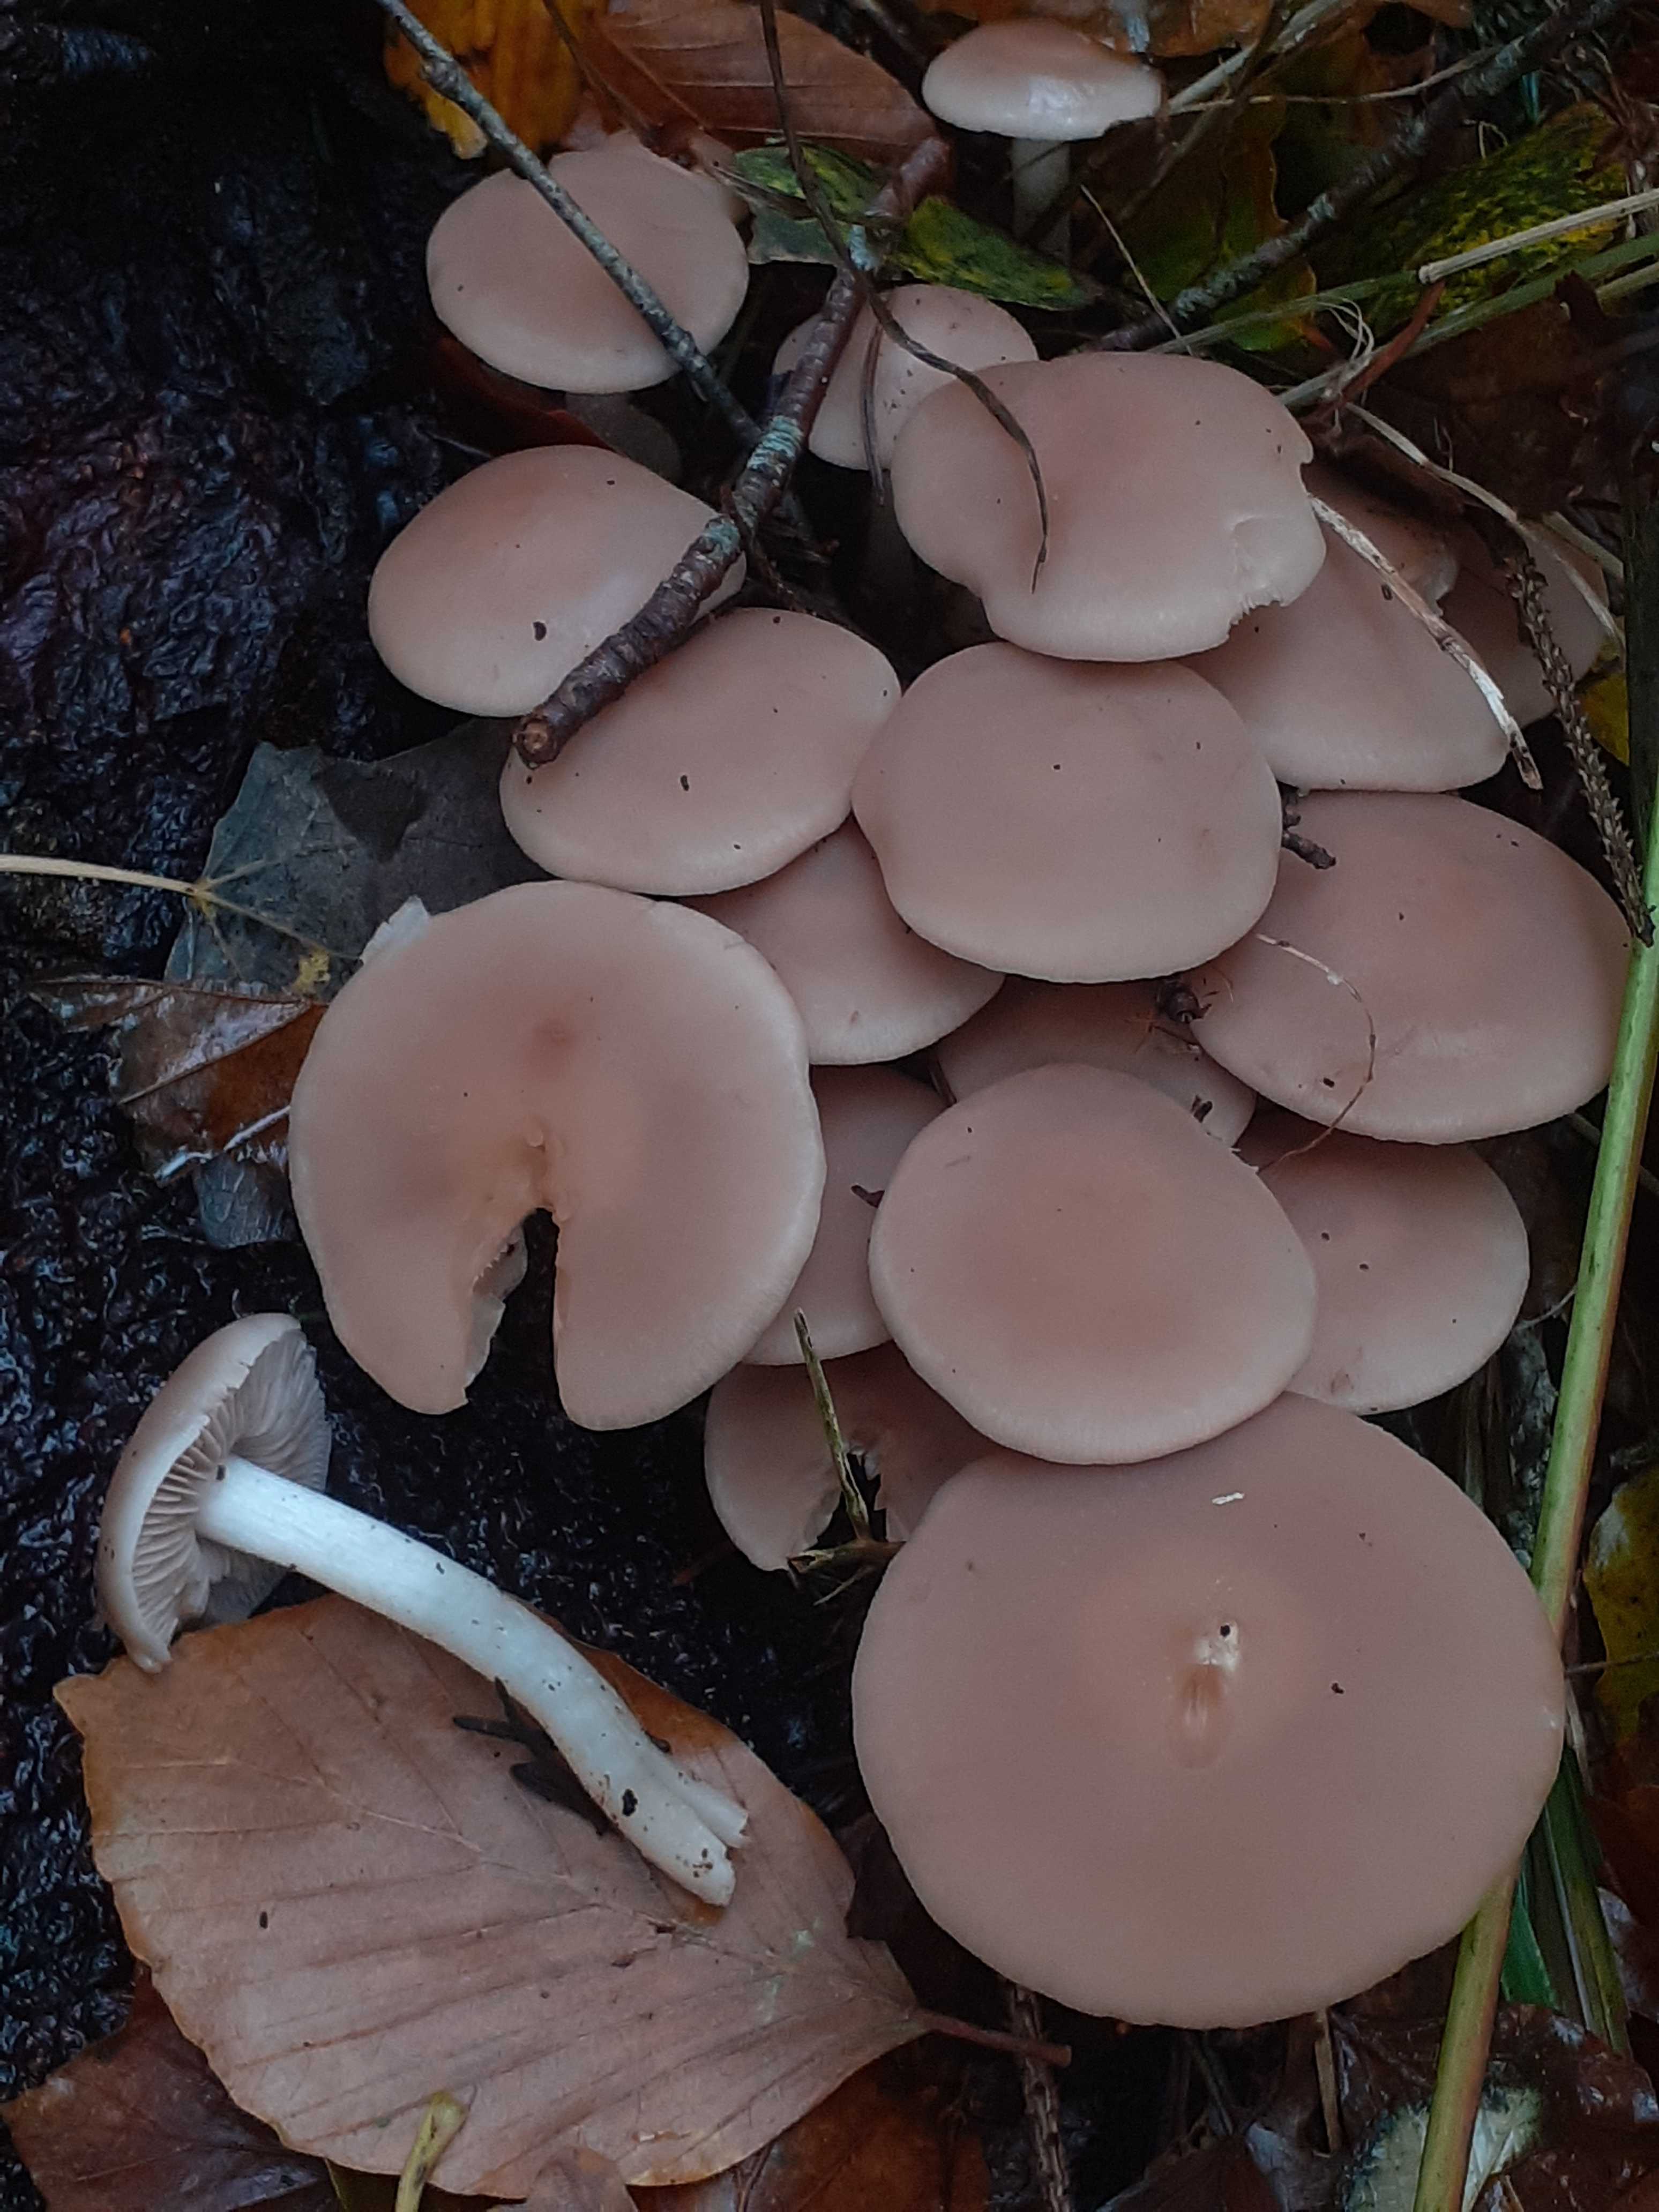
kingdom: Fungi
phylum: Basidiomycota
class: Agaricomycetes
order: Agaricales
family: Psathyrellaceae
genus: Psathyrella
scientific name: Psathyrella piluliformis
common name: lysstokket mørkhat
